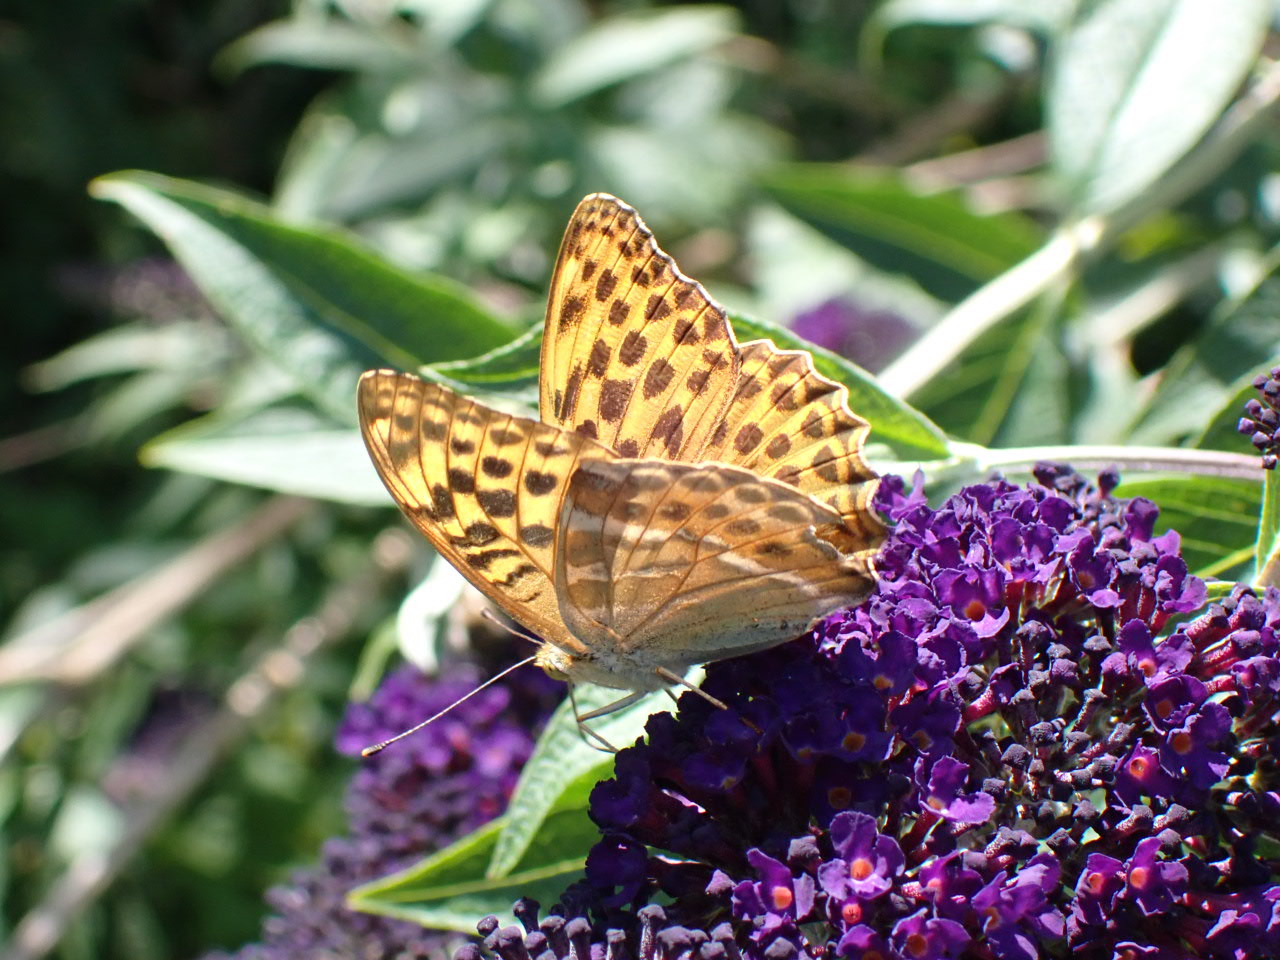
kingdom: Animalia
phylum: Arthropoda
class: Insecta
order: Lepidoptera
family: Nymphalidae
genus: Argynnis
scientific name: Argynnis paphia
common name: Kejserkåbe
